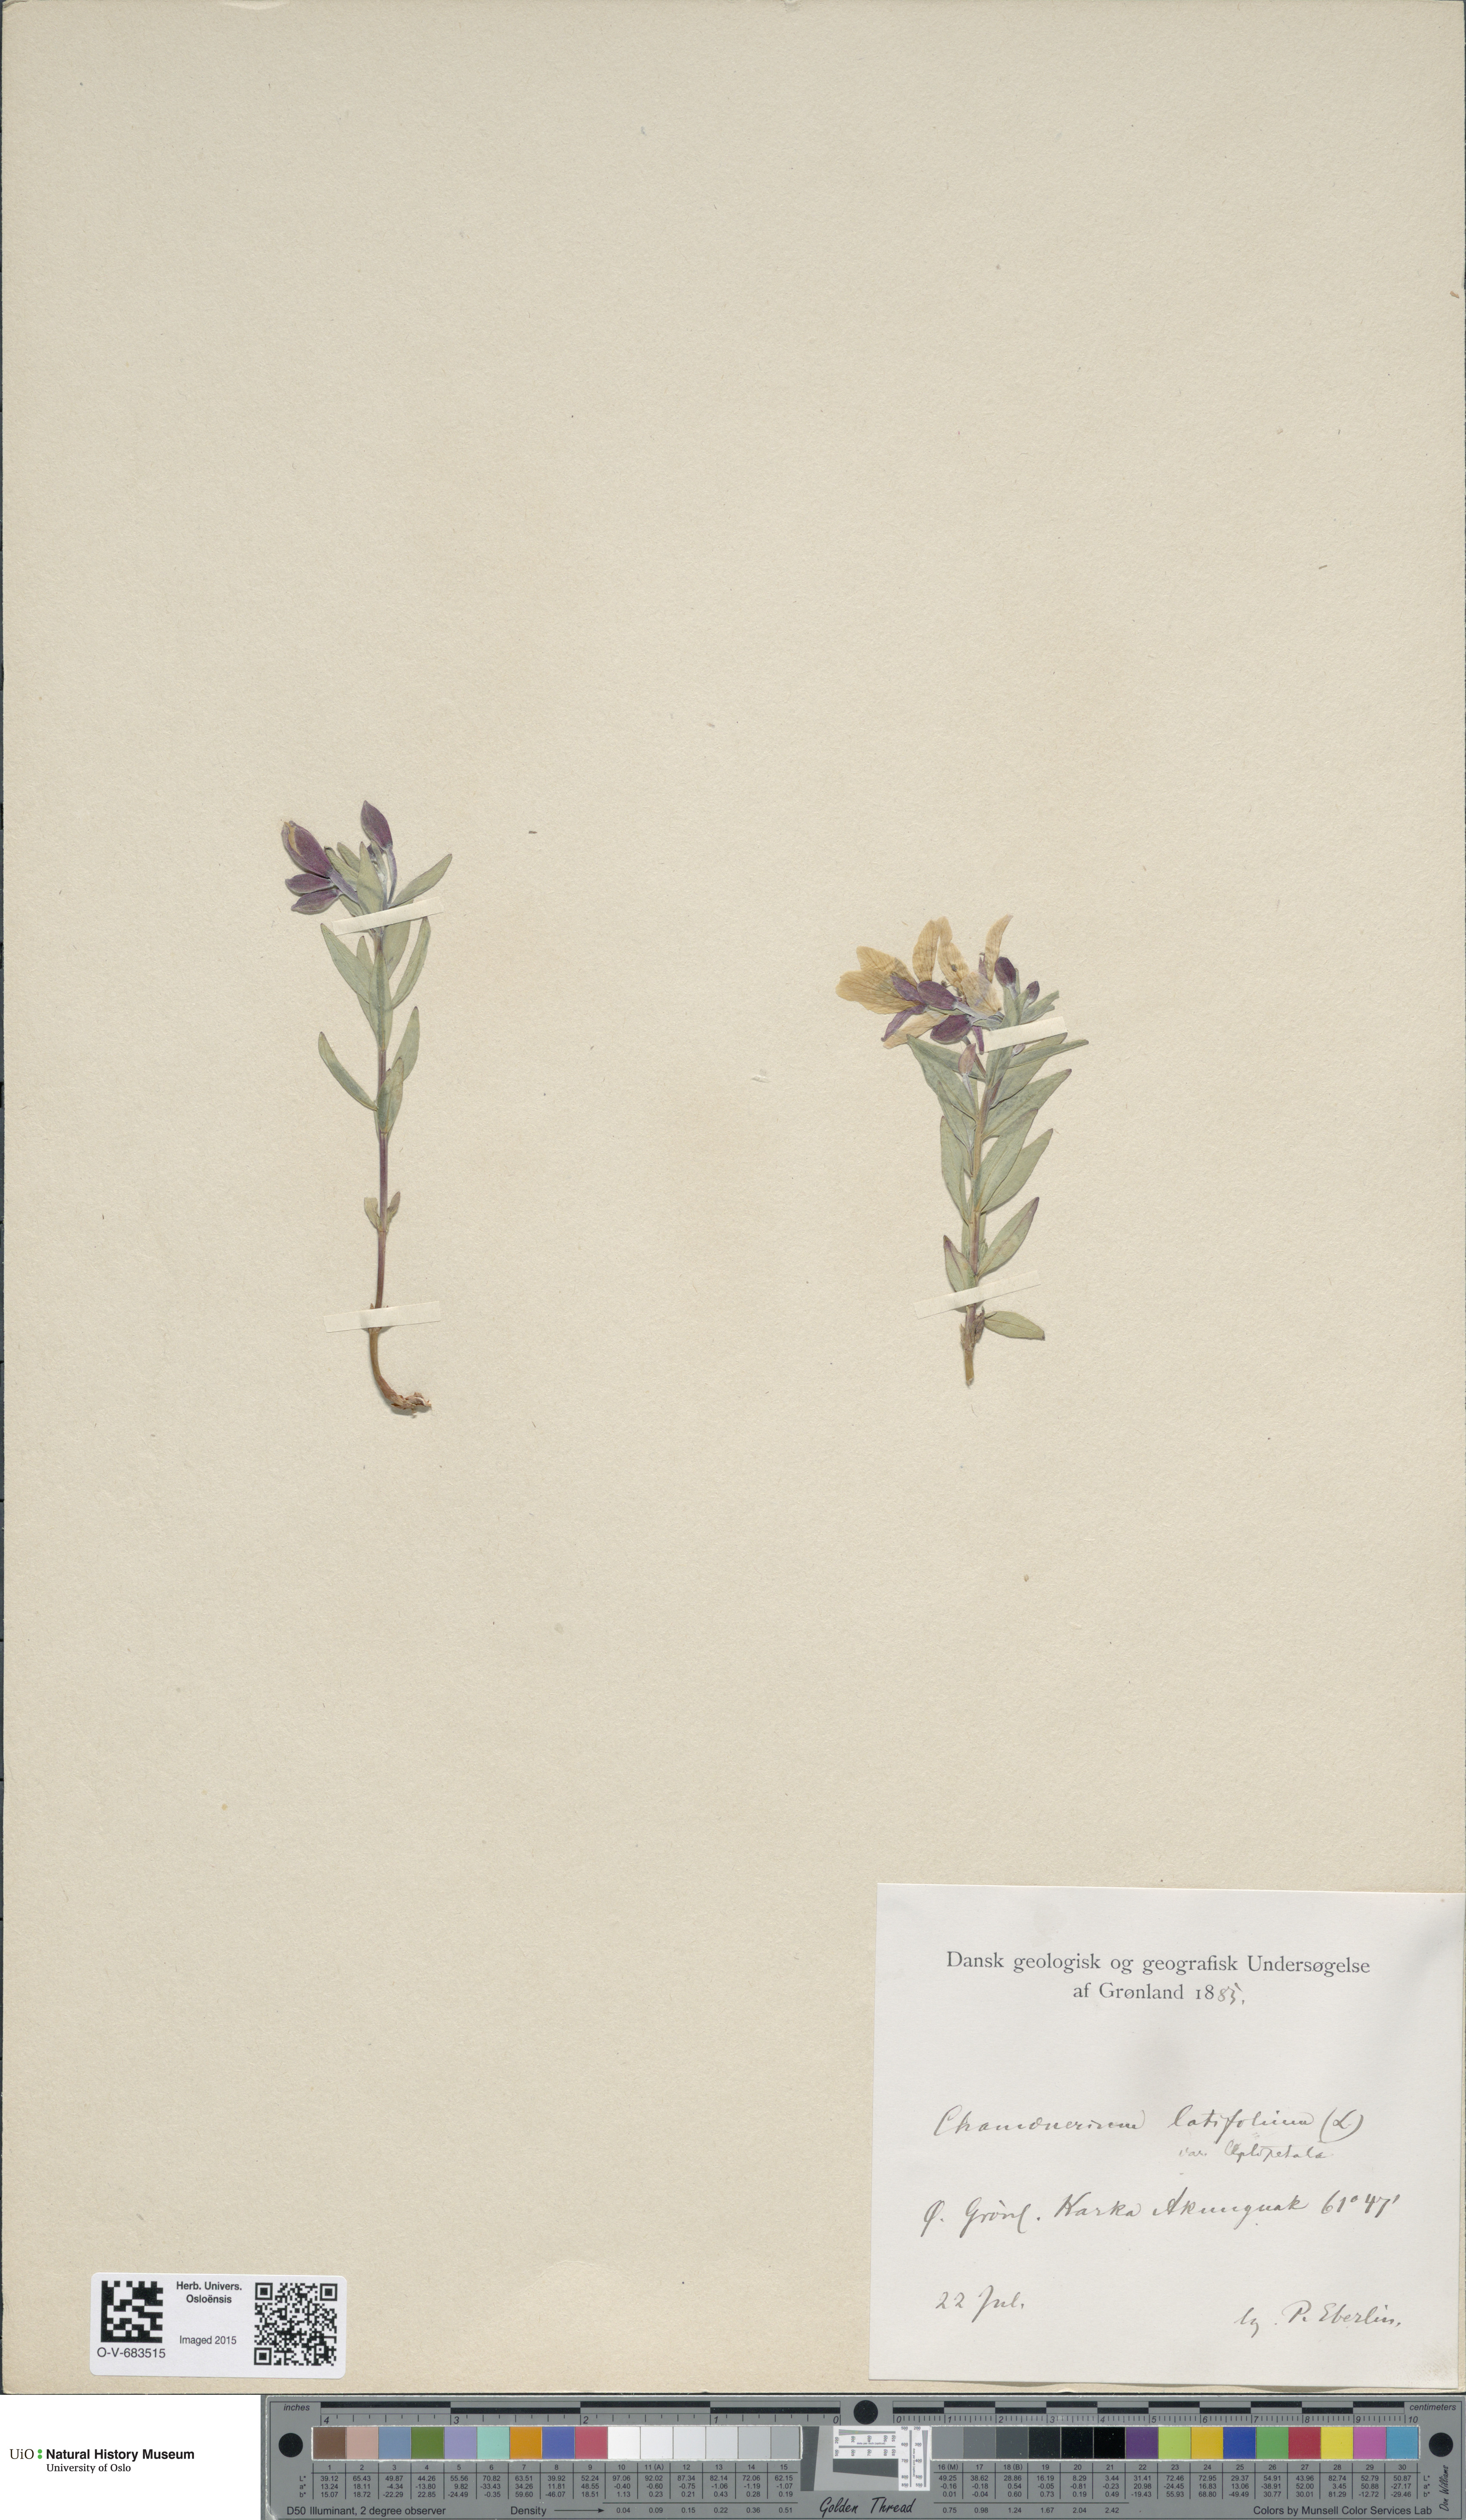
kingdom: Plantae
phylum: Tracheophyta
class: Magnoliopsida
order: Myrtales
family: Onagraceae
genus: Chamaenerion
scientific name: Chamaenerion latifolium
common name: Dwarf fireweed
